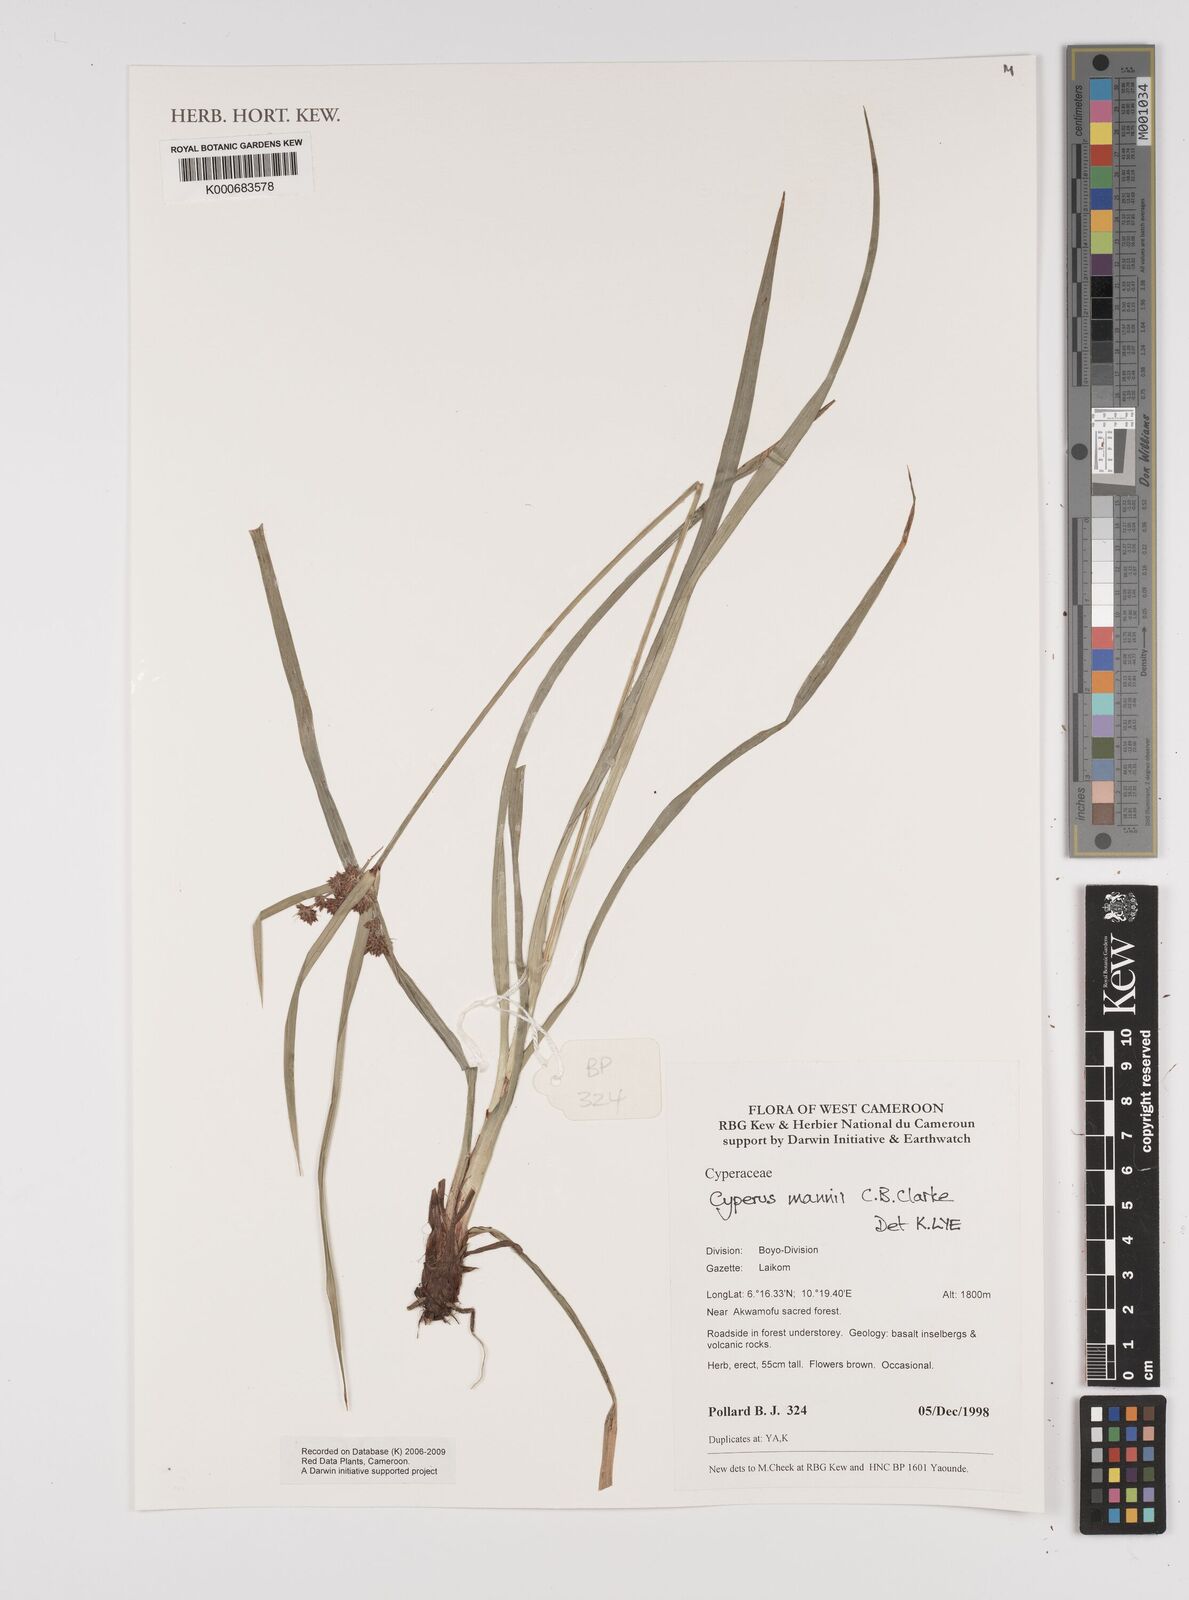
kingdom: Plantae
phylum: Tracheophyta
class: Liliopsida
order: Poales
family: Cyperaceae
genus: Cyperus
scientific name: Cyperus baronii
